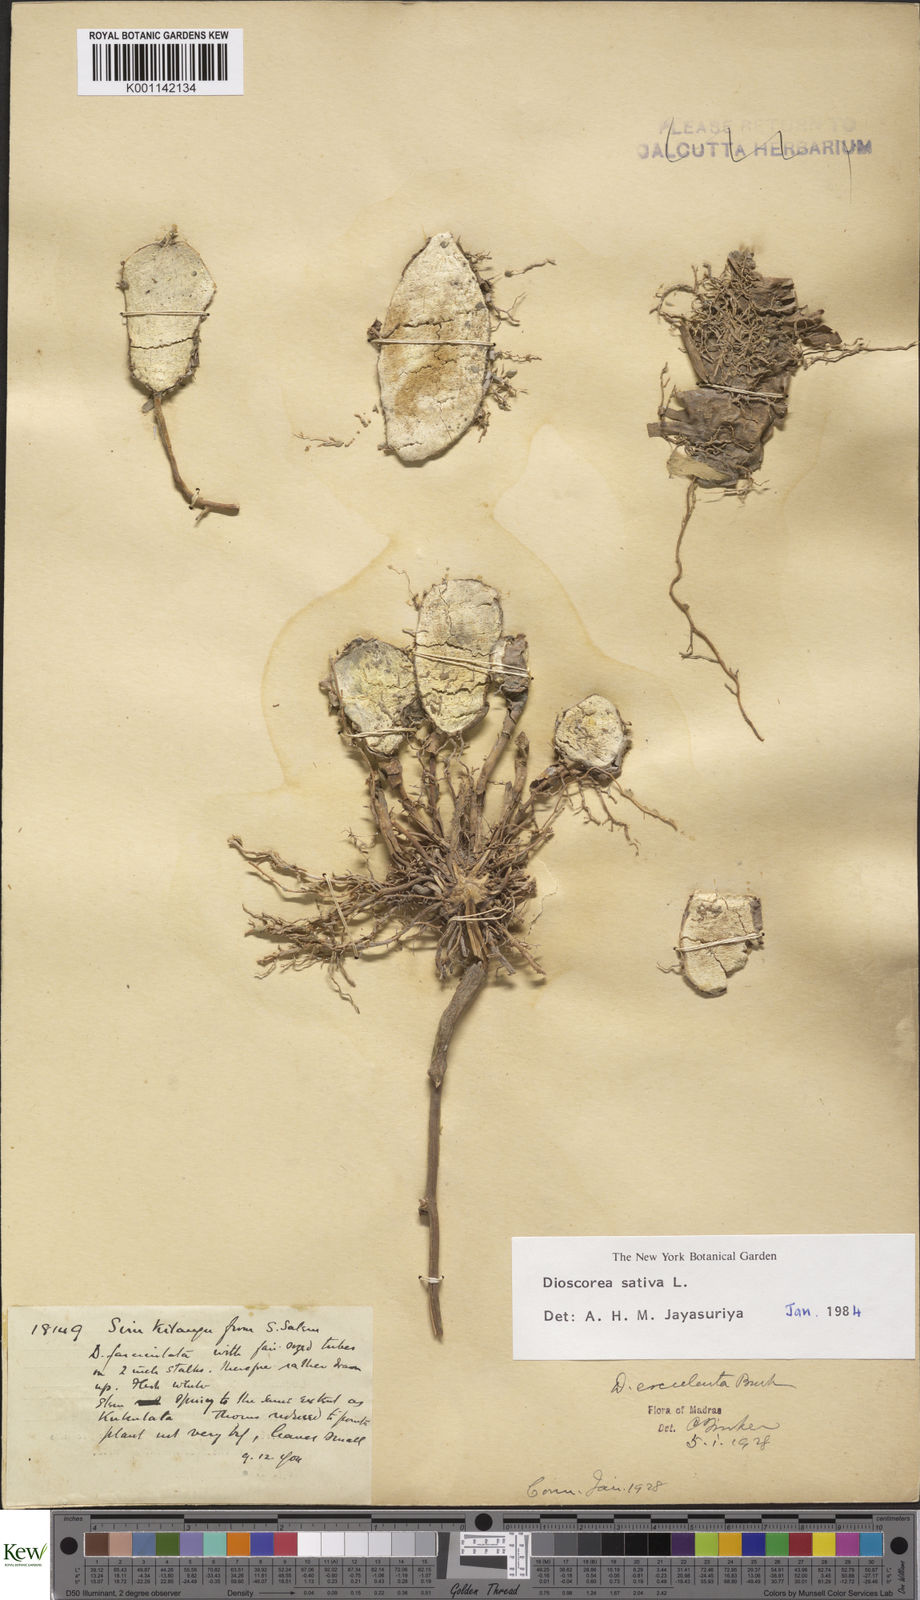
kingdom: Plantae
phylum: Tracheophyta
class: Liliopsida
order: Dioscoreales
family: Dioscoreaceae
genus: Dioscorea
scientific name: Dioscorea esculenta
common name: Chinese yam
